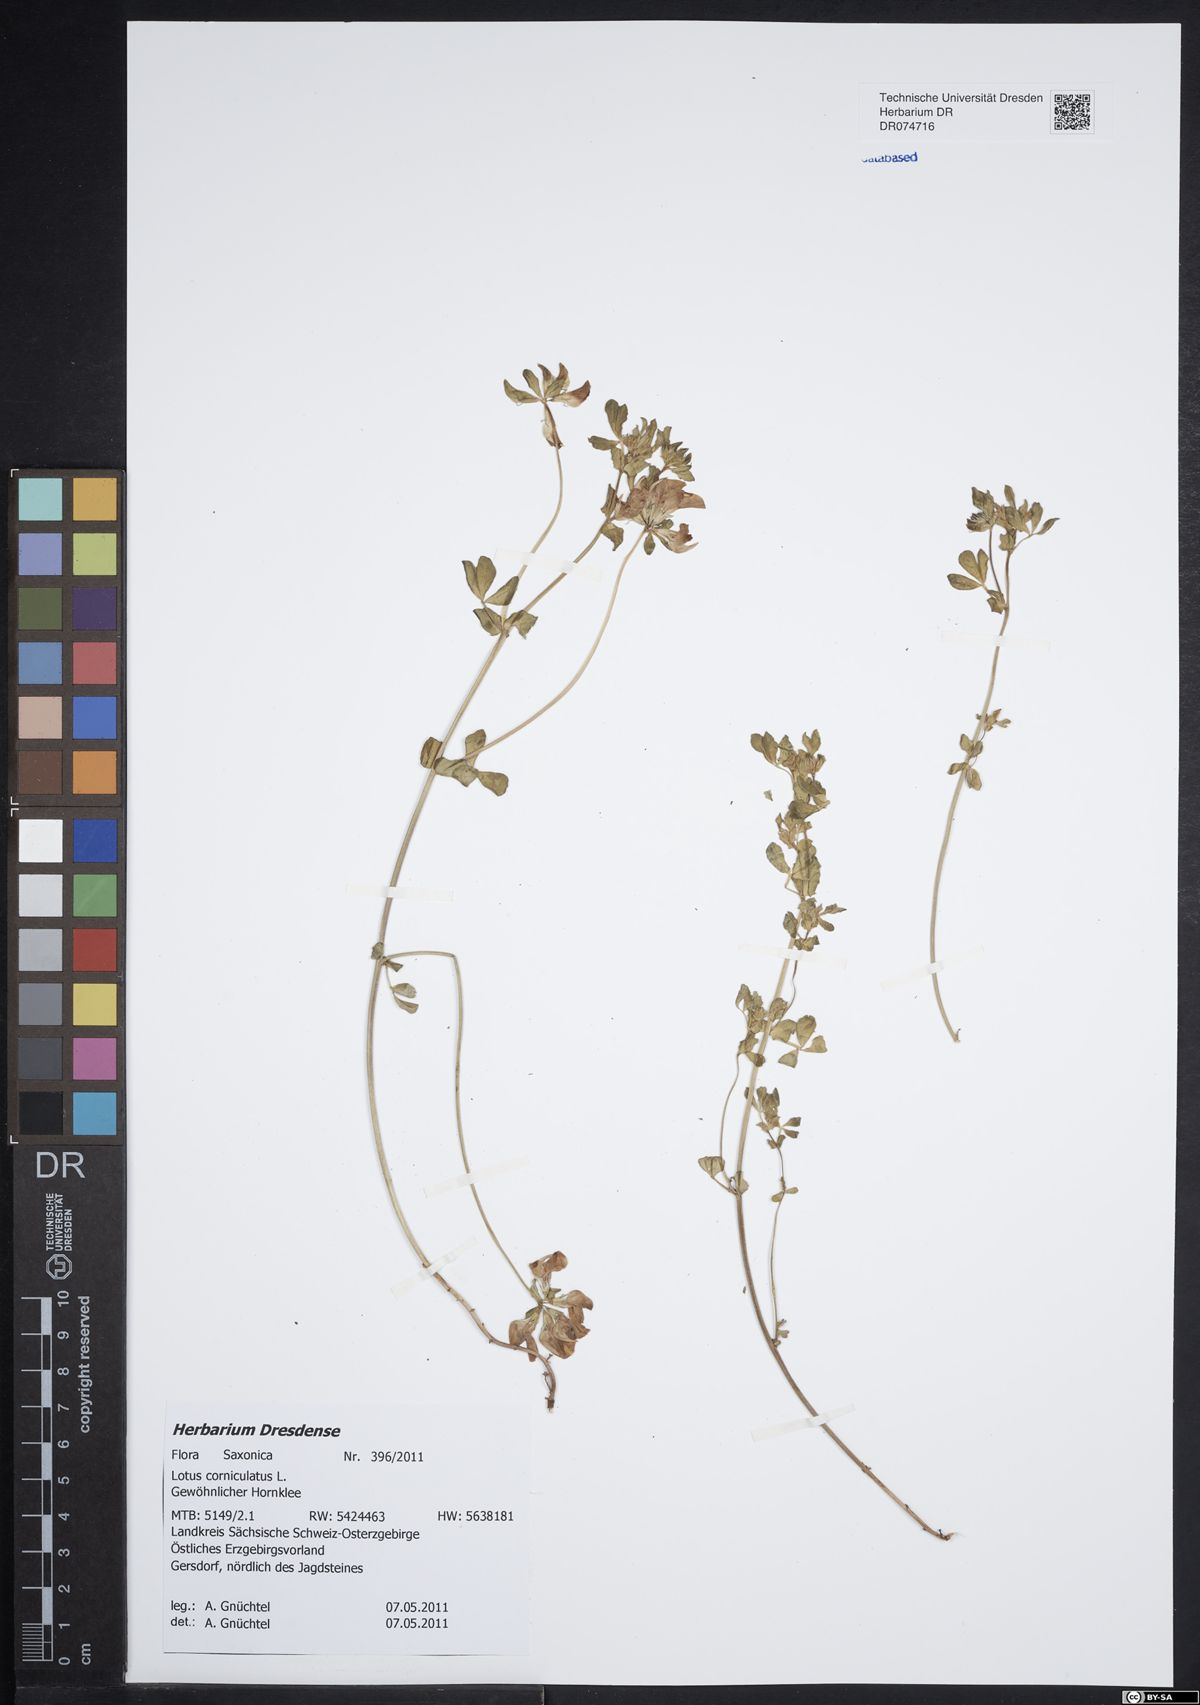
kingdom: Plantae
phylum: Tracheophyta
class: Magnoliopsida
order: Fabales
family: Fabaceae
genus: Lotus
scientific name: Lotus corniculatus
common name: Common bird's-foot-trefoil
